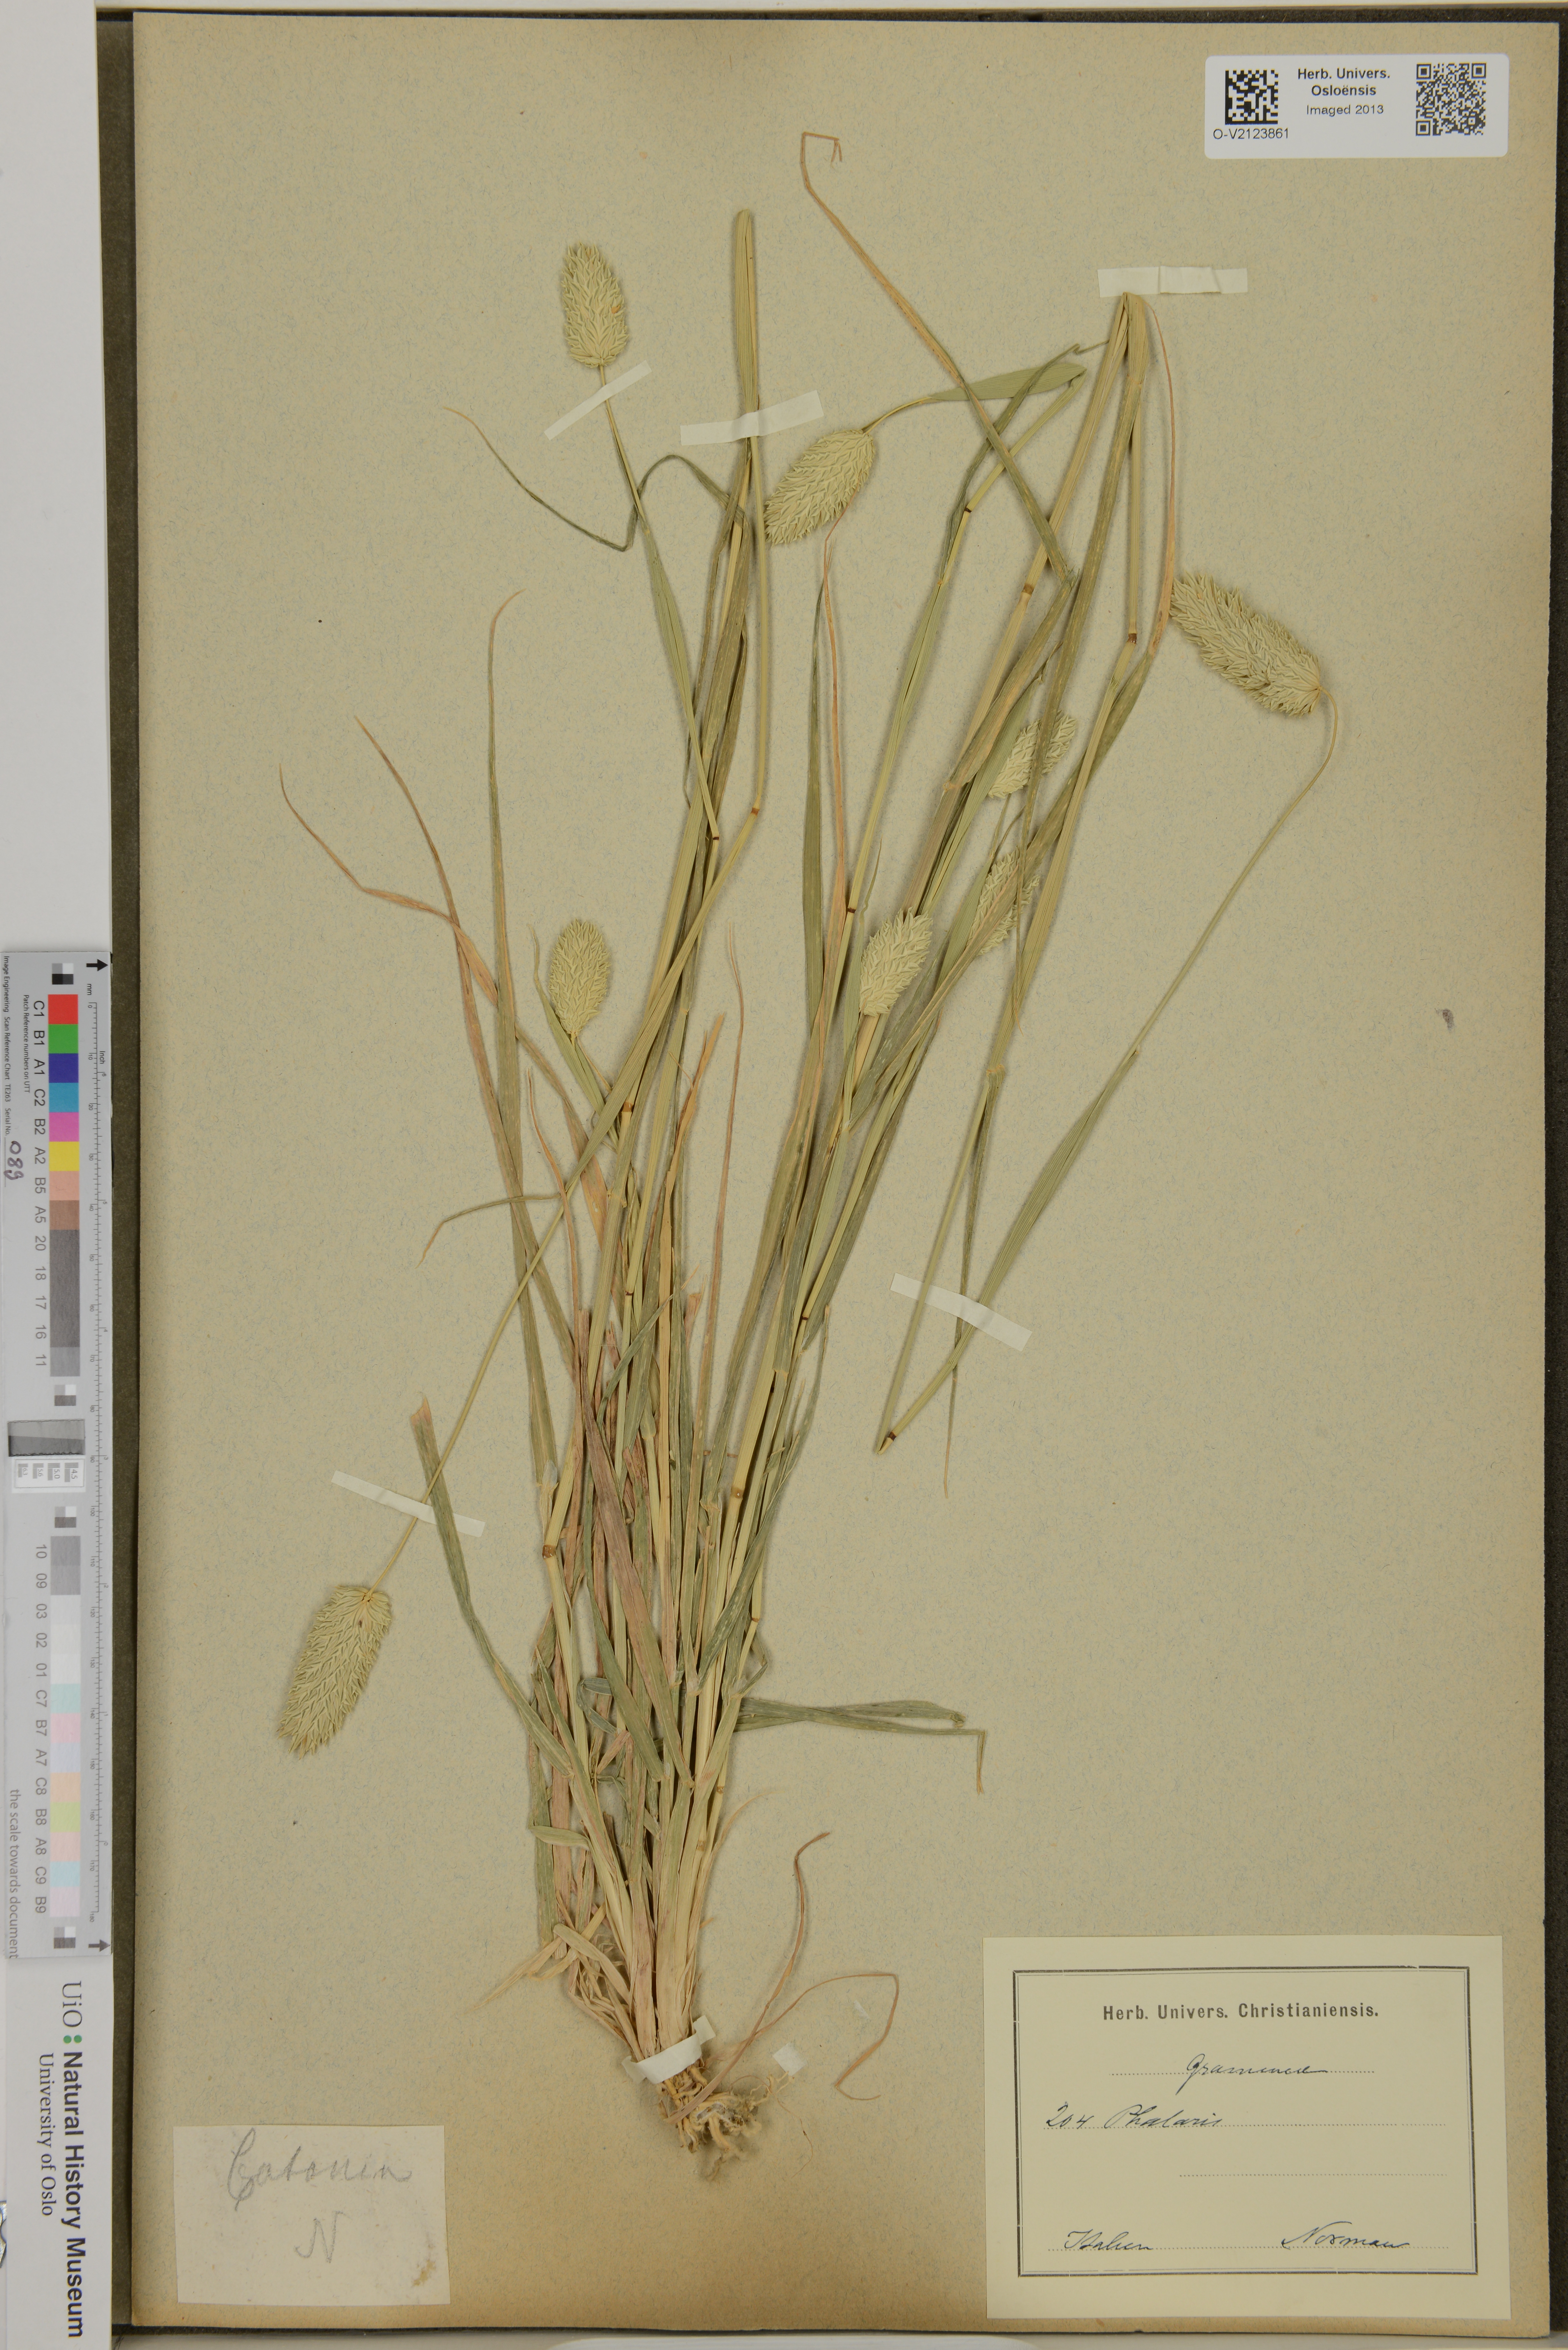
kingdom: Plantae
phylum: Tracheophyta
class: Liliopsida
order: Poales
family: Poaceae
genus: Phalaris
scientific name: Phalaris
